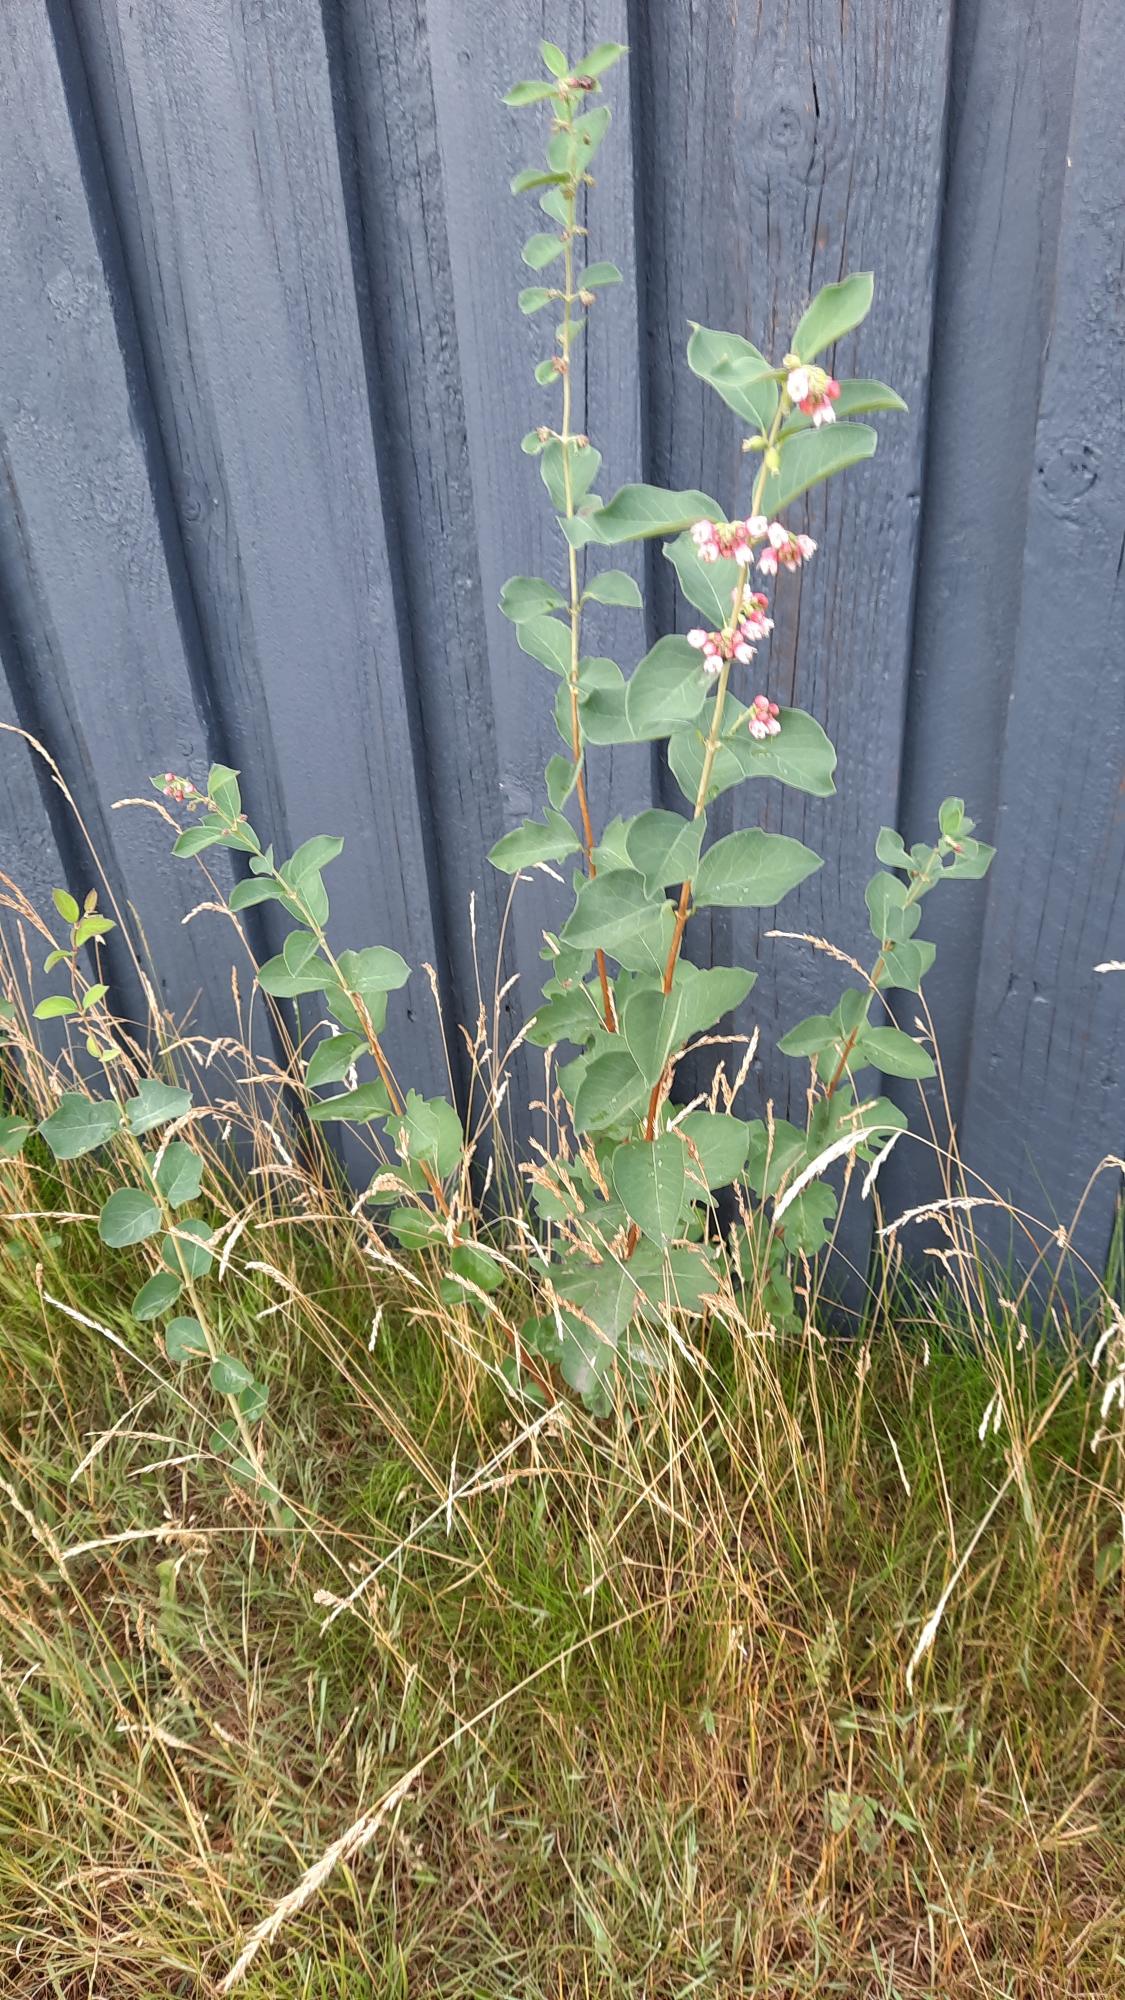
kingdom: Plantae
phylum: Tracheophyta
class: Magnoliopsida
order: Dipsacales
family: Caprifoliaceae
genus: Symphoricarpos
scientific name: Symphoricarpos albus
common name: Almindelig snebær
